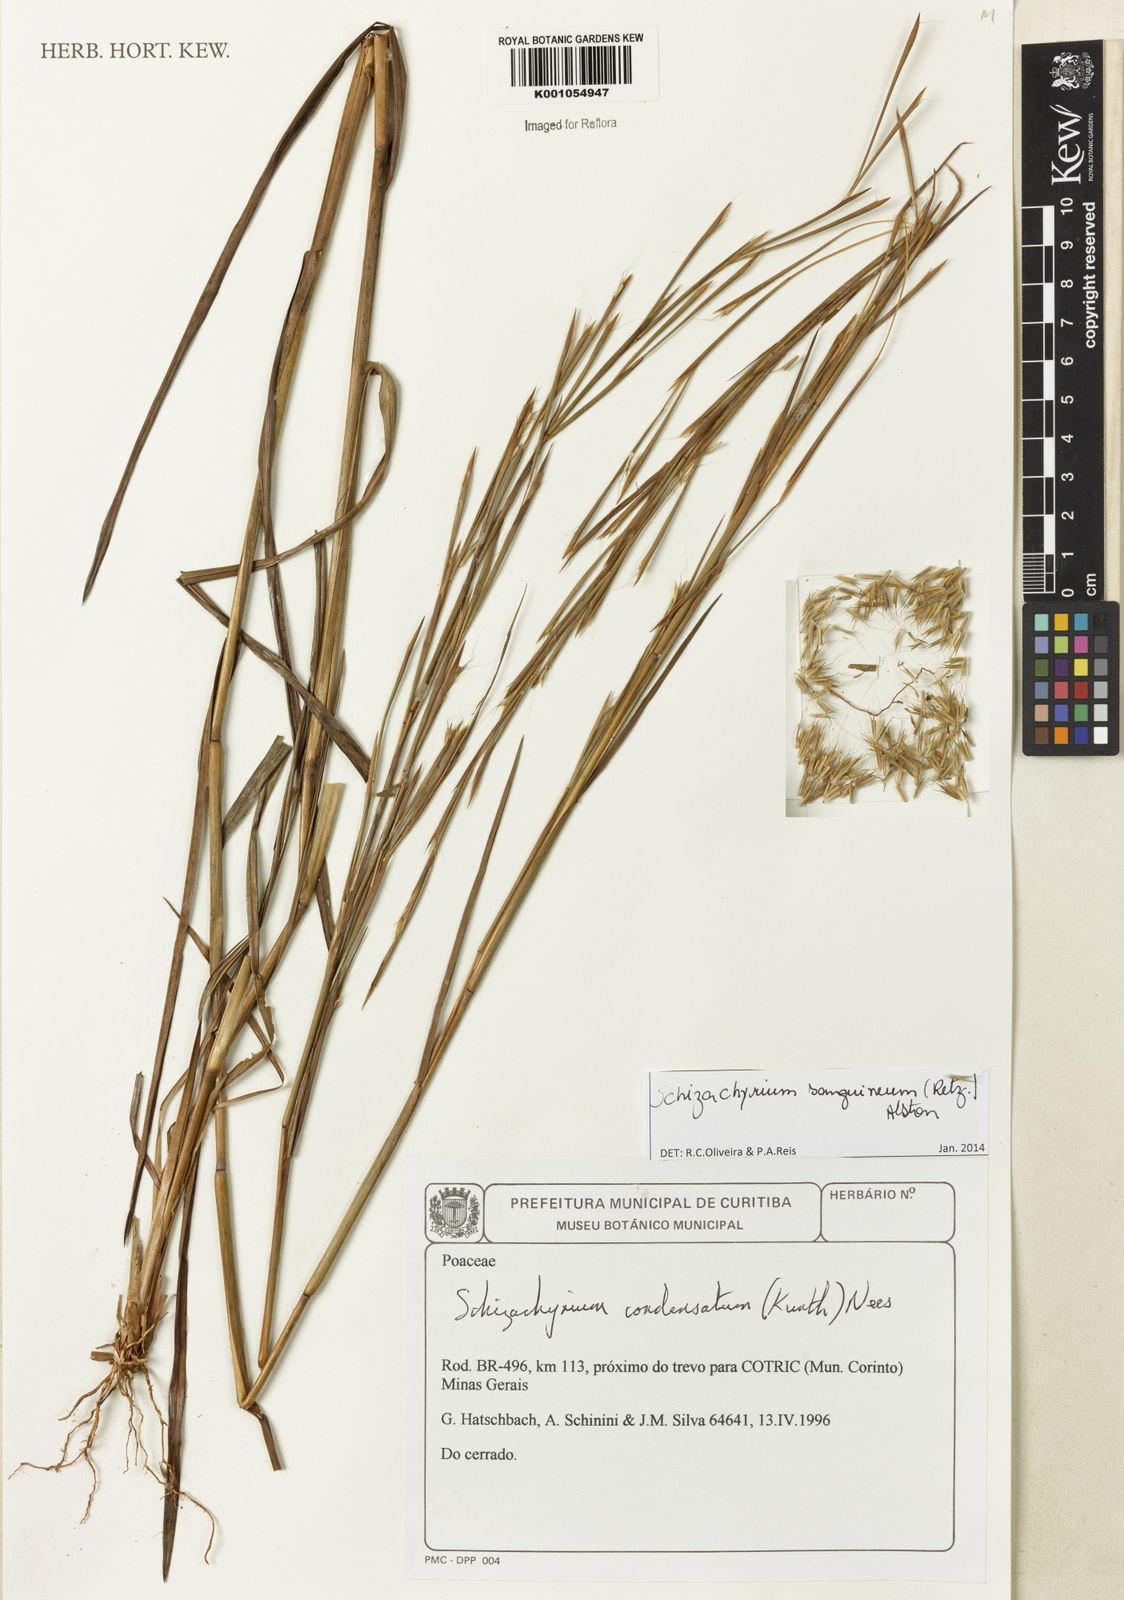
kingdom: Plantae
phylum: Tracheophyta
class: Liliopsida
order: Poales
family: Poaceae
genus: Schizachyrium
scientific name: Schizachyrium sanguineum
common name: Crimson bluestem
